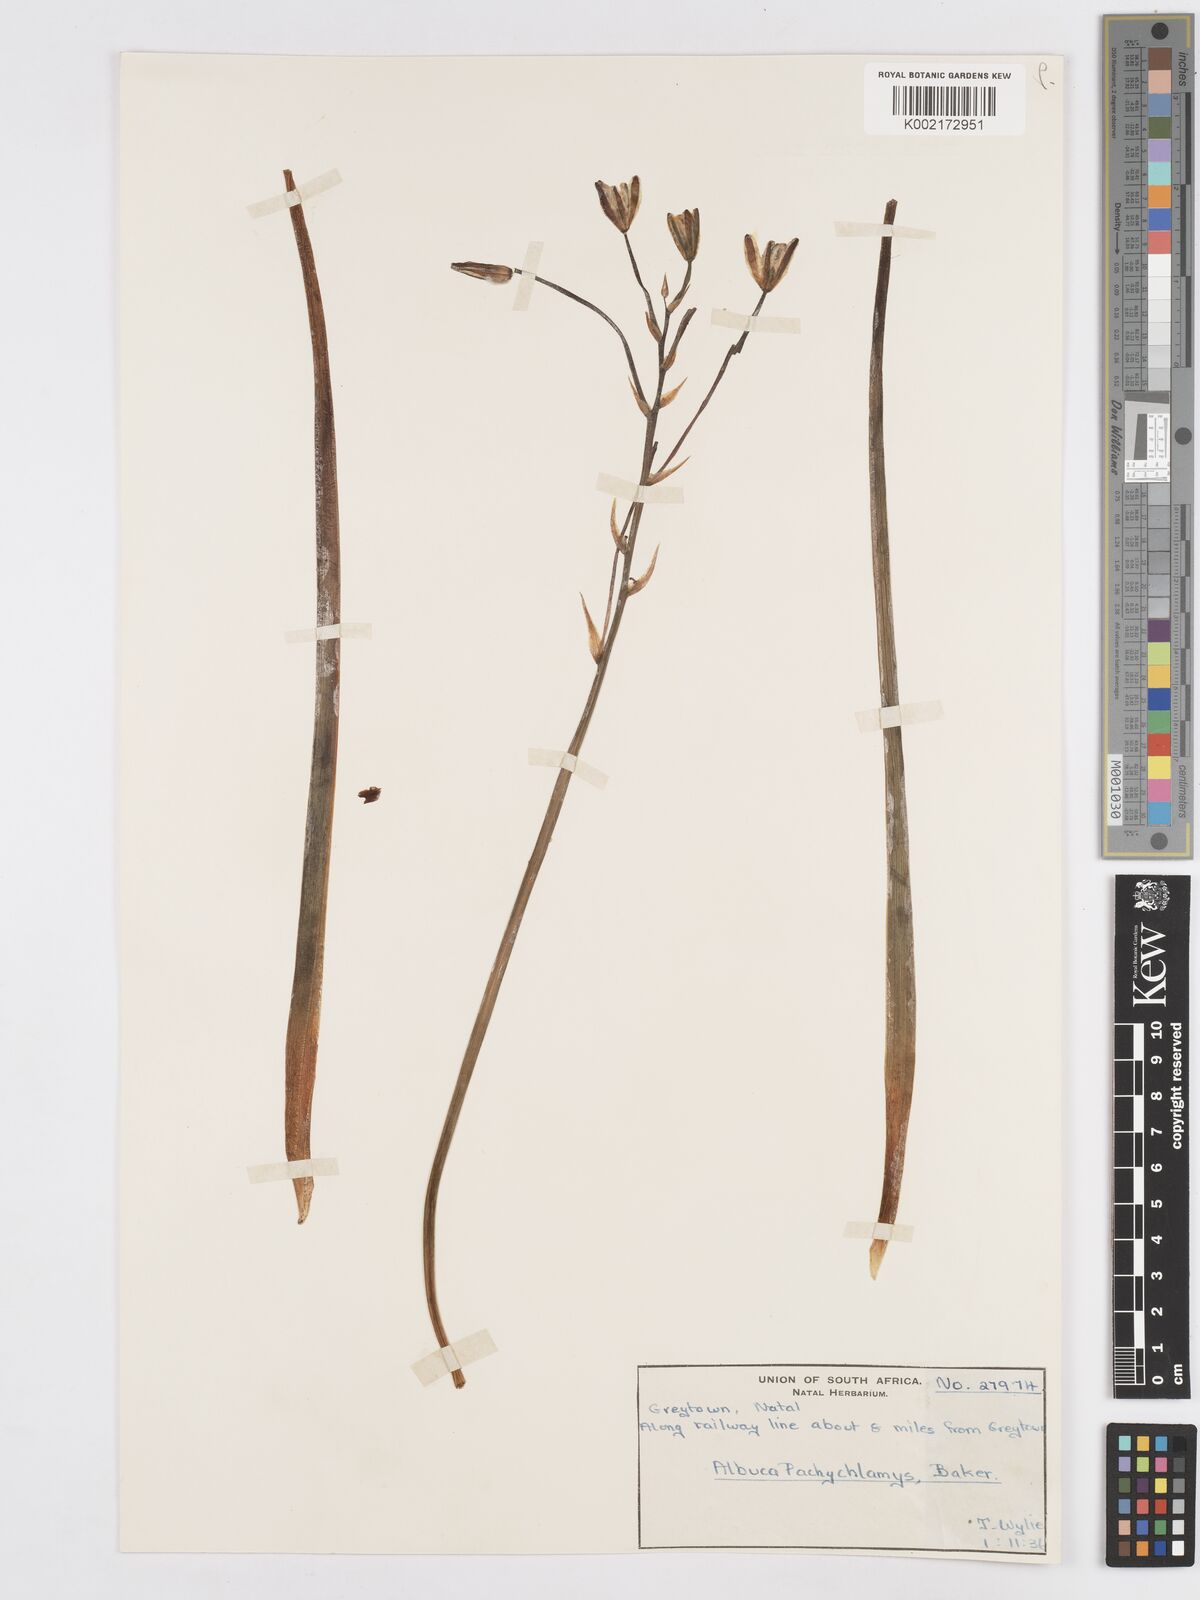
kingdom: Plantae
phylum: Tracheophyta
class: Liliopsida
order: Asparagales
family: Asparagaceae
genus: Albuca
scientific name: Albuca setosa
